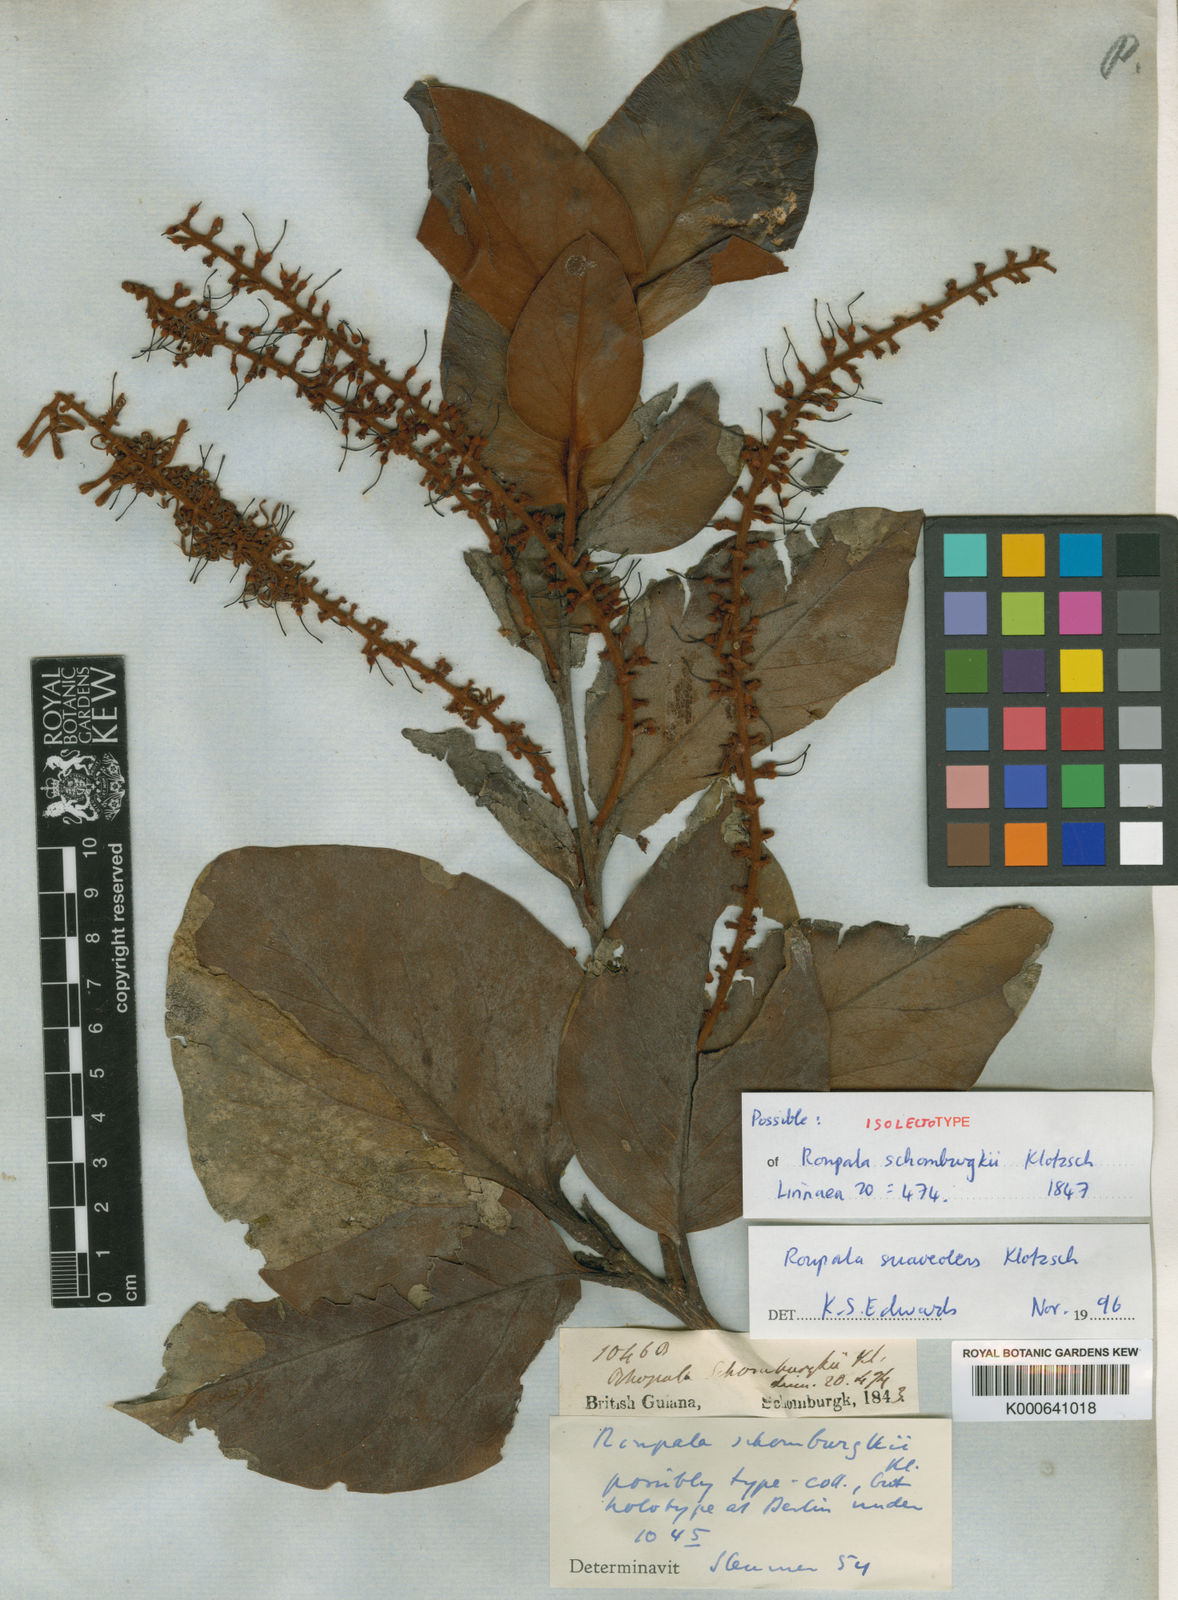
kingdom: Plantae
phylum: Tracheophyta
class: Magnoliopsida
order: Proteales
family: Proteaceae
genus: Roupala
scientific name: Roupala suaveolens
